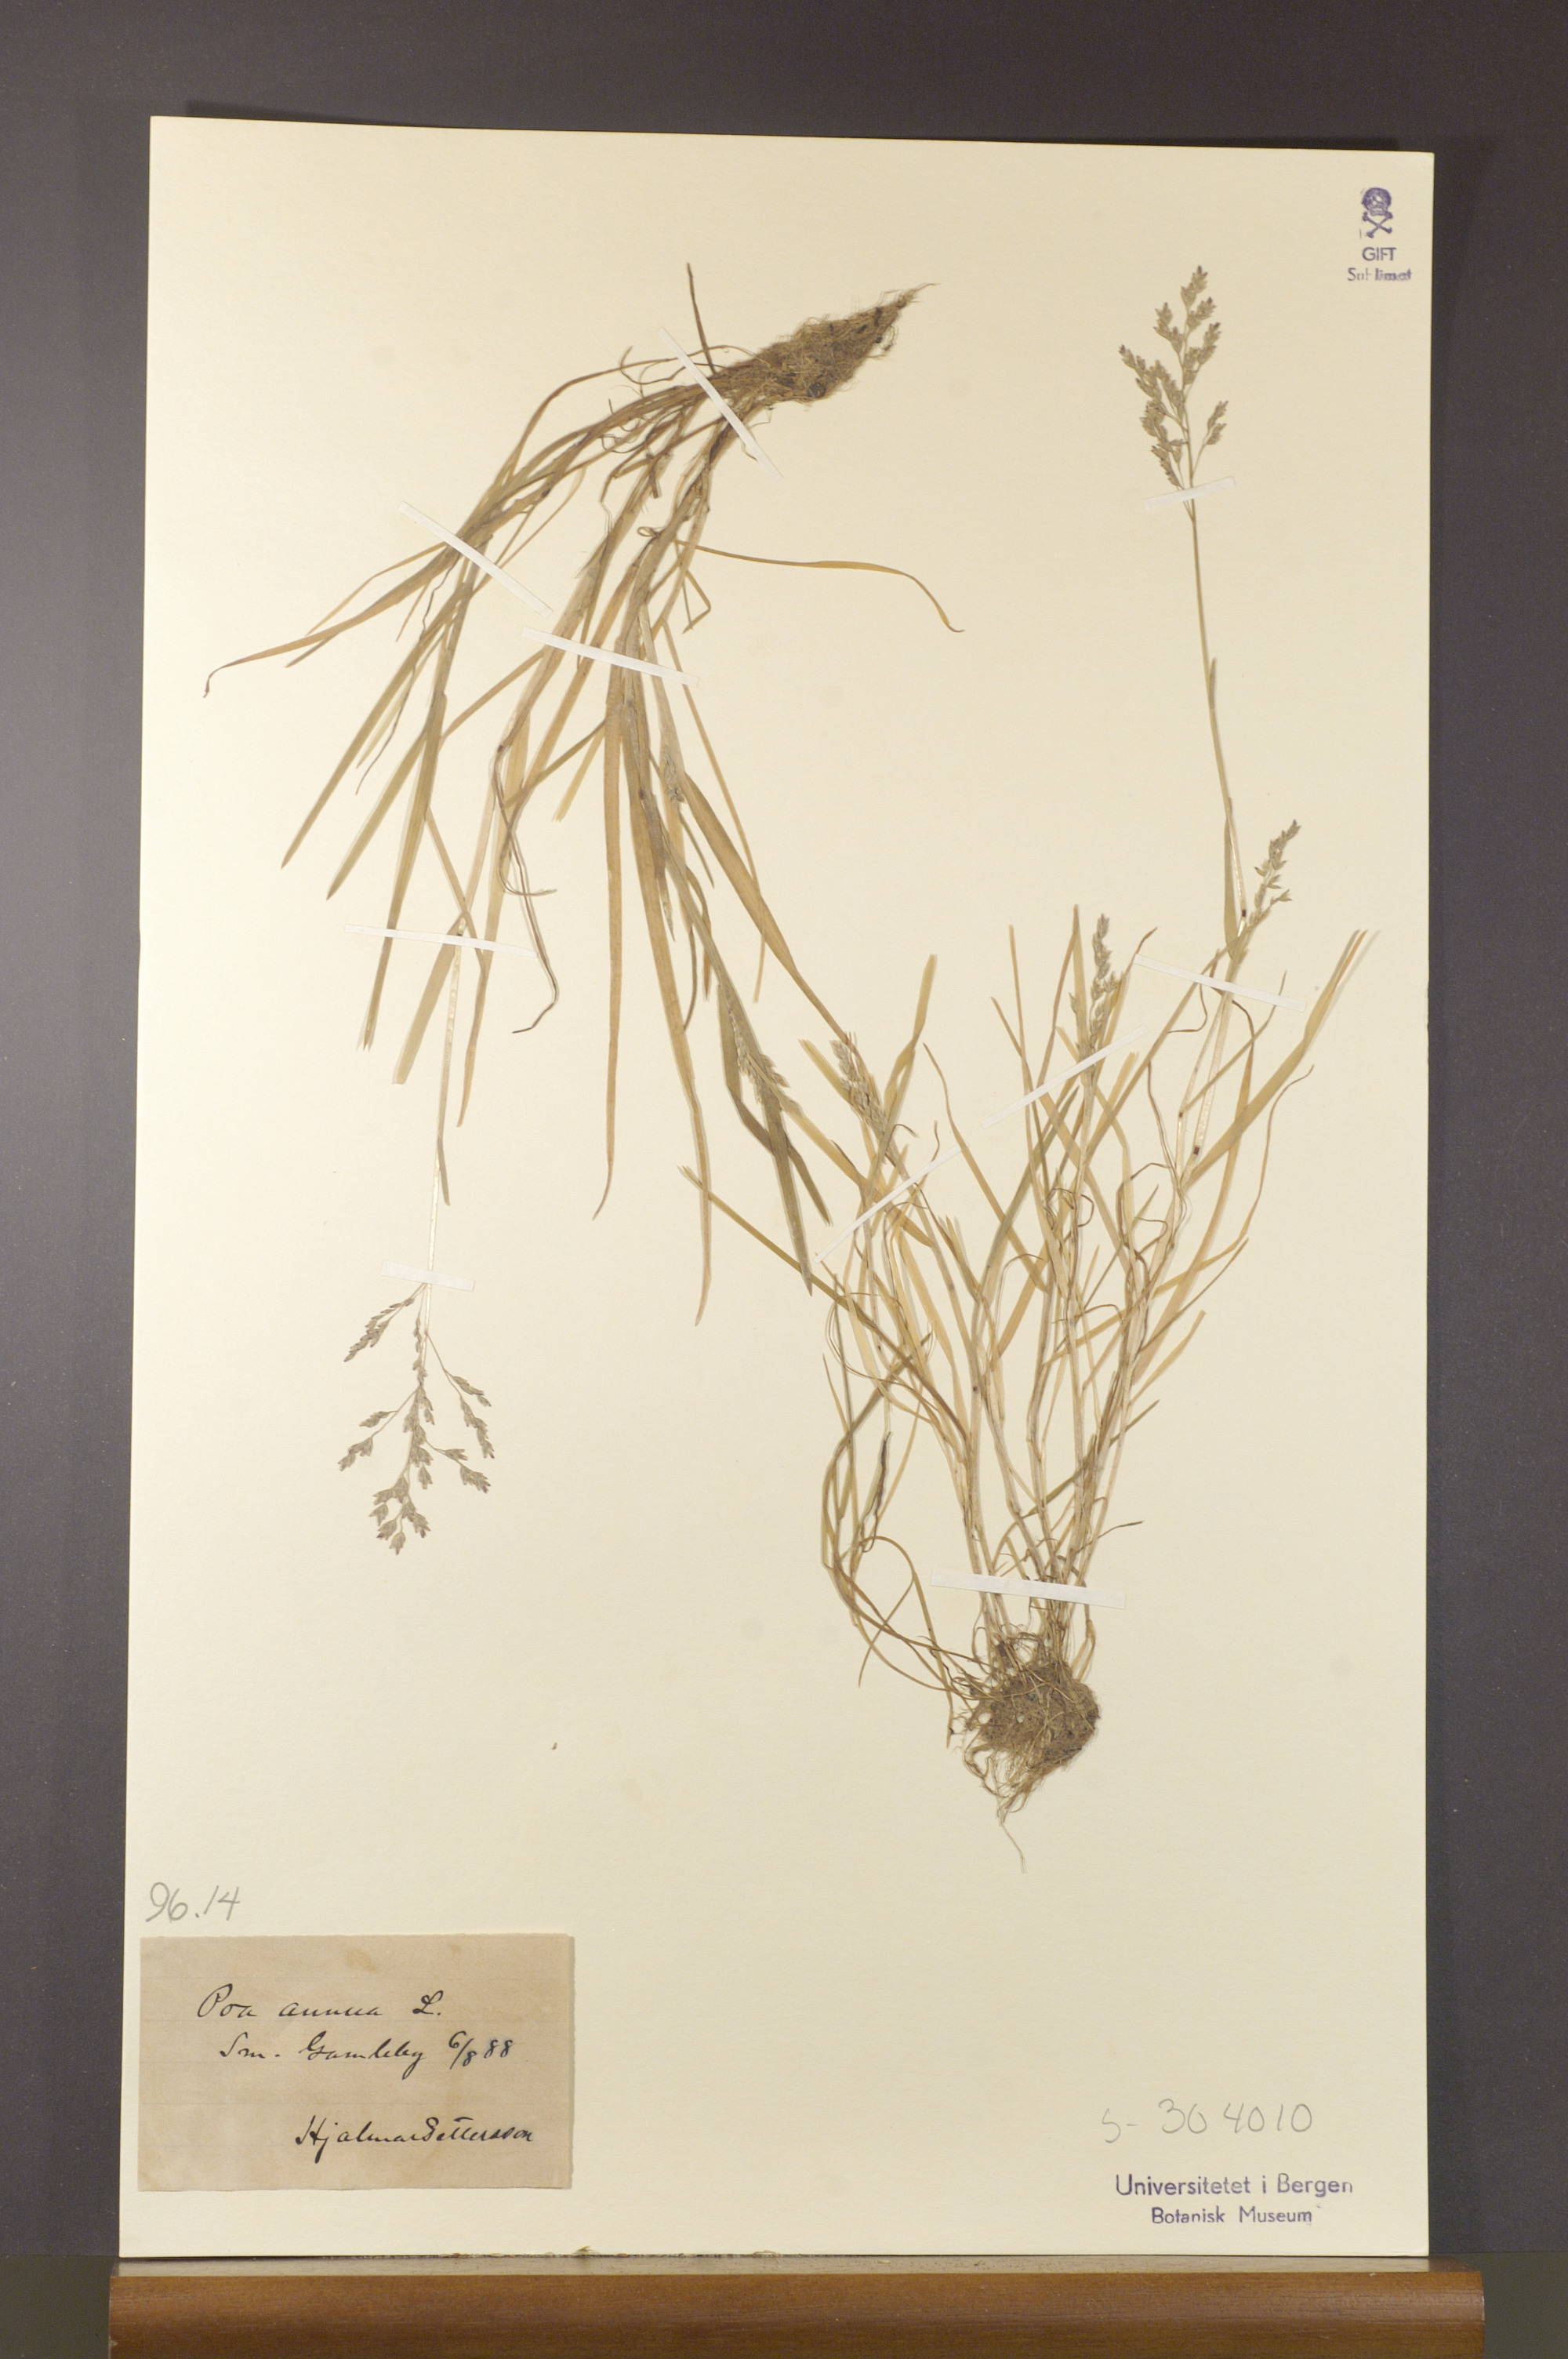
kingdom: Plantae
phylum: Tracheophyta
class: Liliopsida
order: Poales
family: Poaceae
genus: Poa
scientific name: Poa annua
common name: Annual bluegrass
